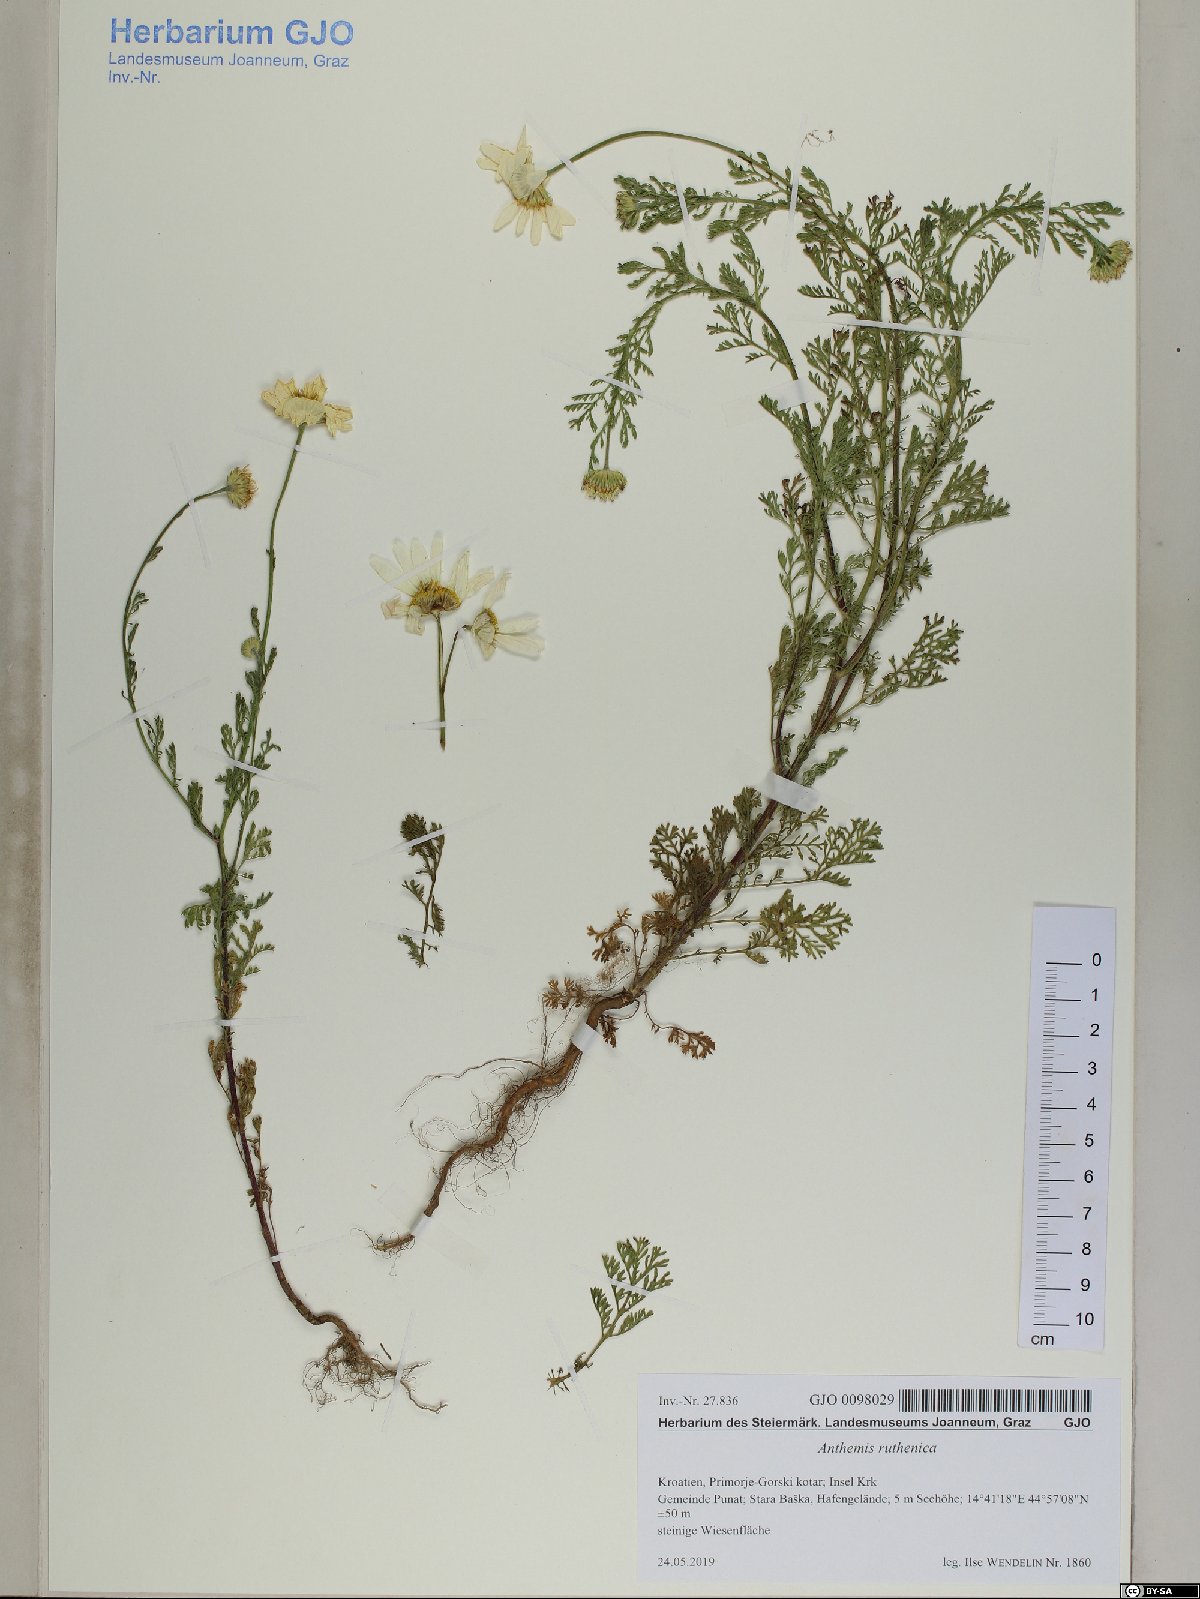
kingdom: Plantae
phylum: Tracheophyta
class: Magnoliopsida
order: Asterales
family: Asteraceae
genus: Cota
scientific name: Cota segetalis
